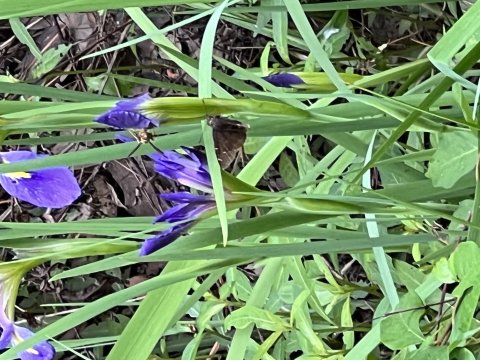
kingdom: Animalia
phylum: Arthropoda
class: Insecta
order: Lepidoptera
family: Hesperiidae
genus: Autochton
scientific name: Autochton
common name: Northern Cloudywing
